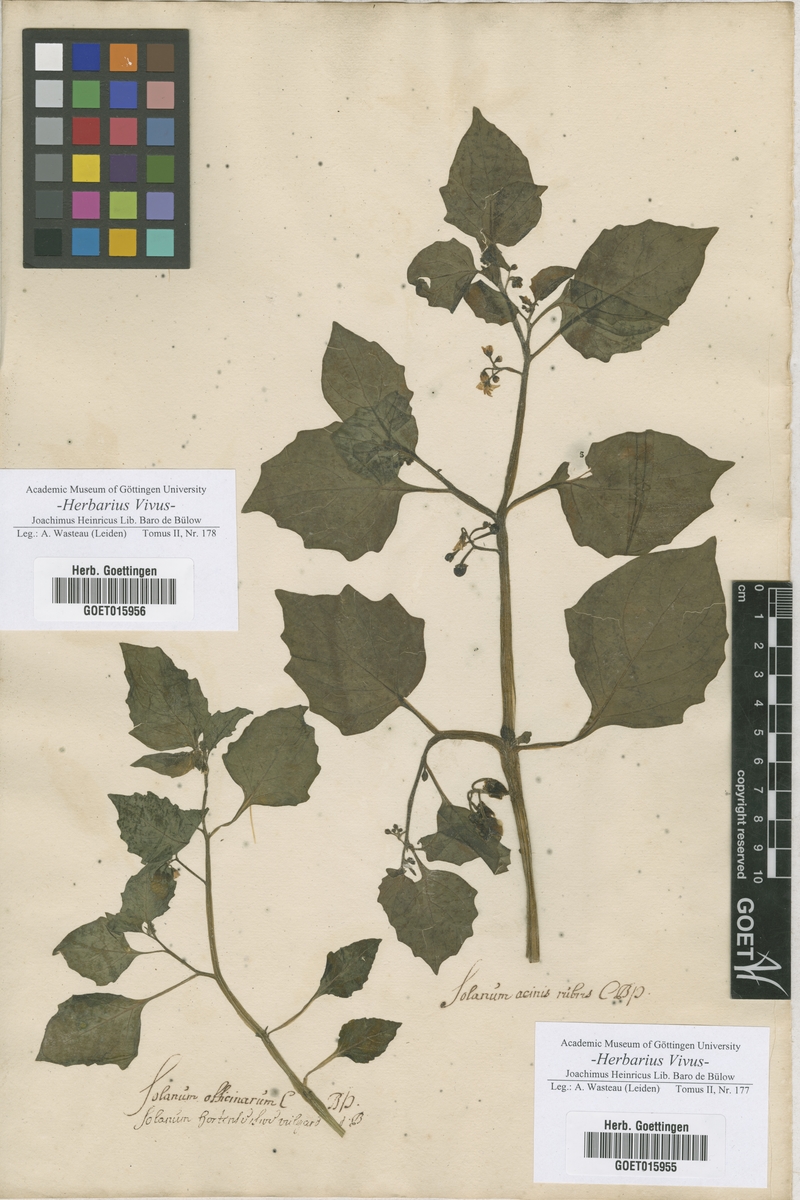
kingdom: Plantae
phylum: Tracheophyta
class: Magnoliopsida
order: Solanales
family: Solanaceae
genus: Solanum
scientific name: Solanum
